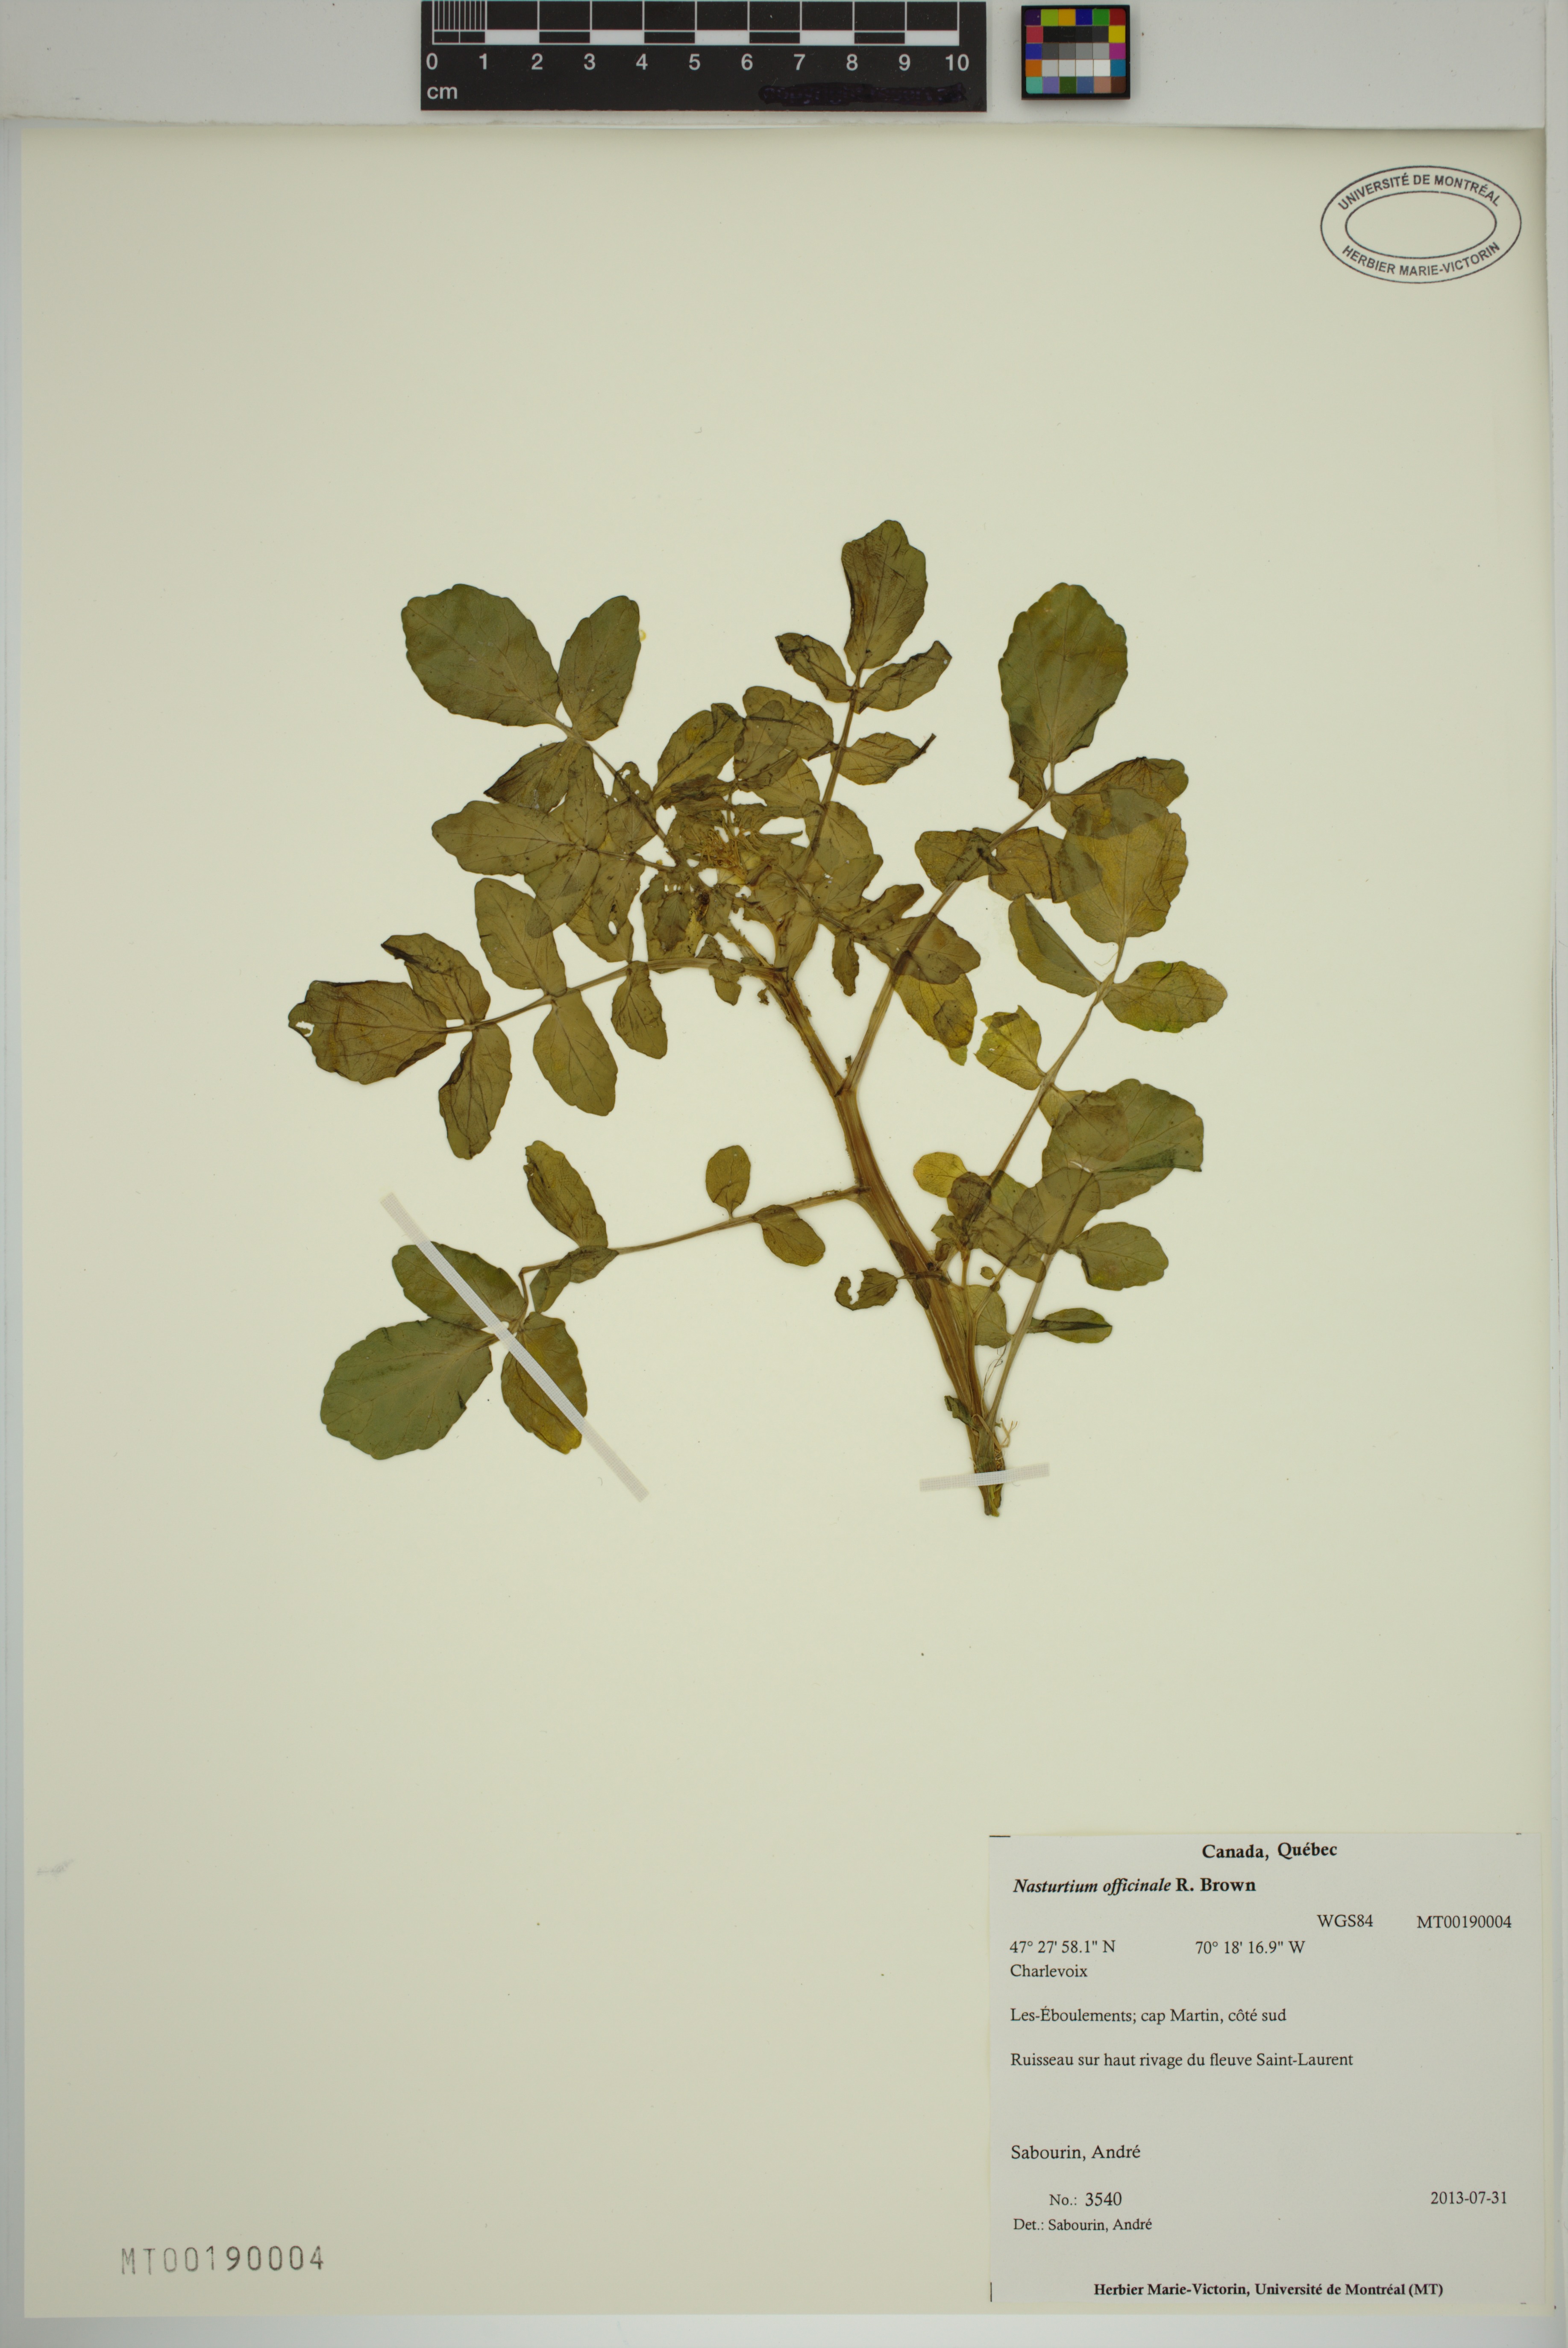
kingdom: Plantae
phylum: Tracheophyta
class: Magnoliopsida
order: Brassicales
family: Brassicaceae
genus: Nasturtium
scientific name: Nasturtium officinale
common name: Watercress
